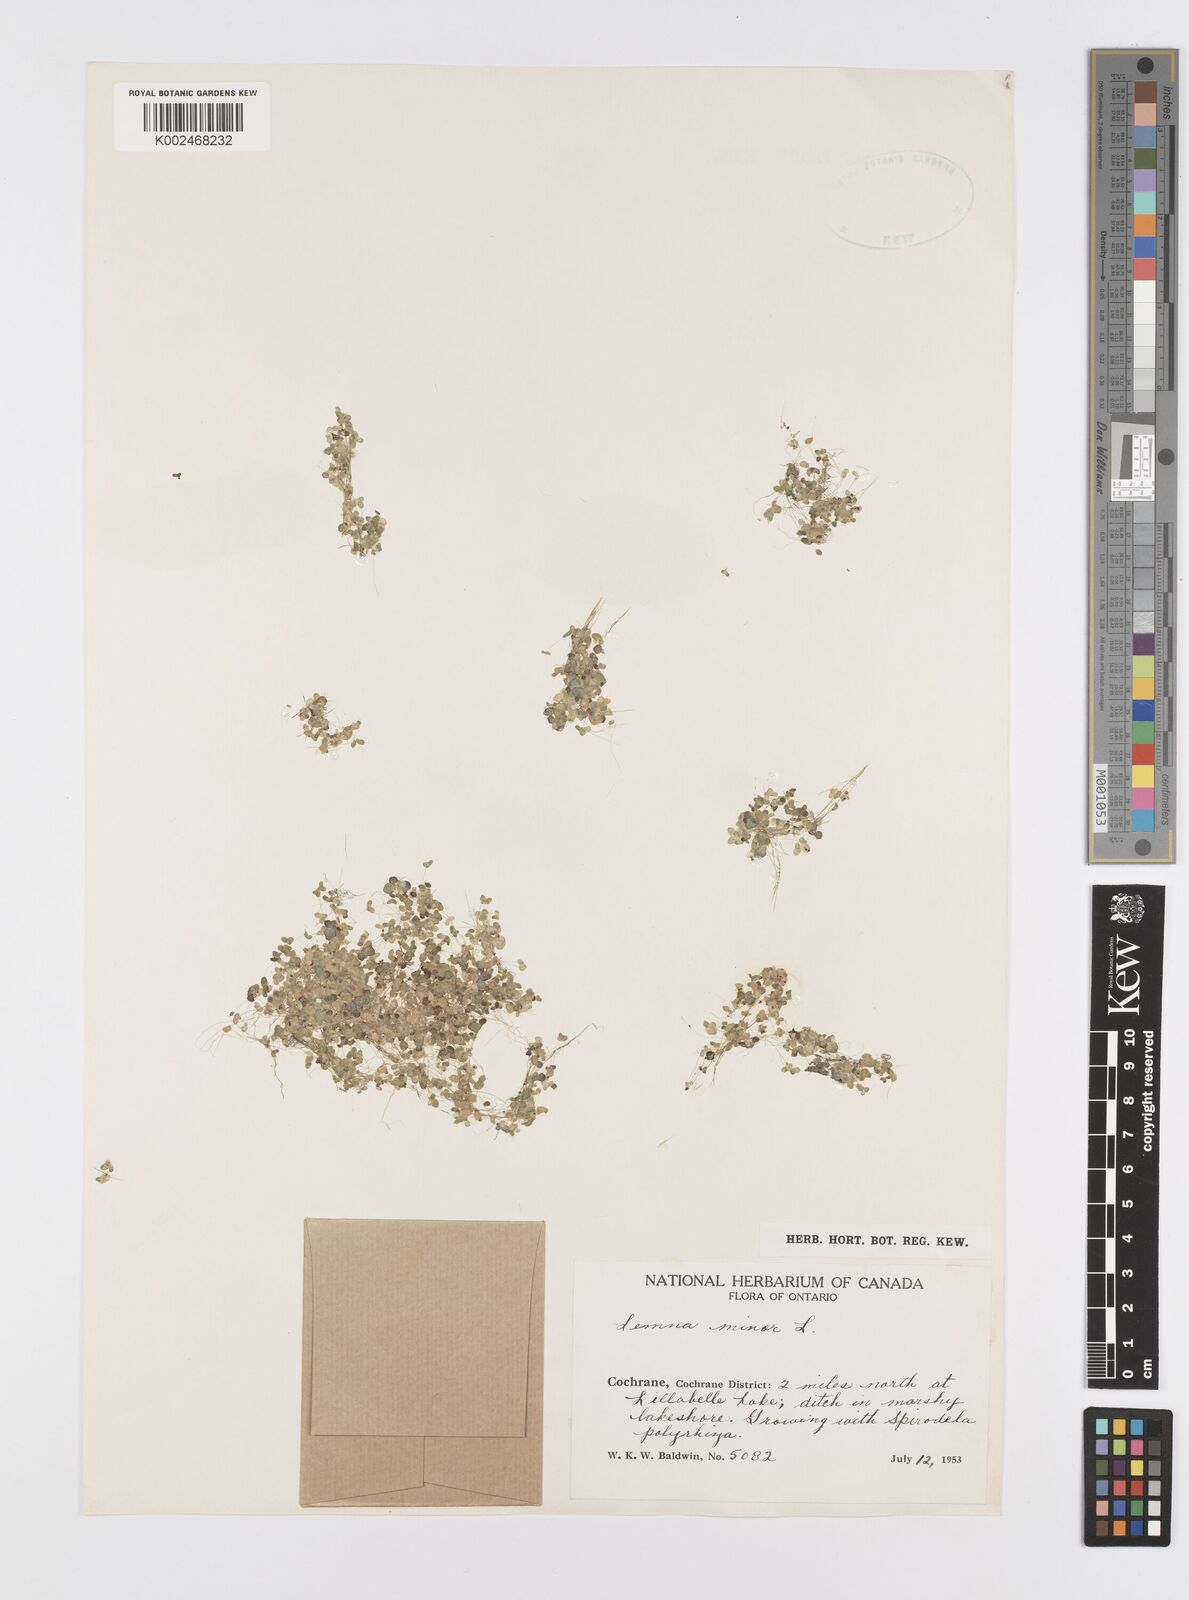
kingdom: Plantae
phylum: Tracheophyta
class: Liliopsida
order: Alismatales
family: Araceae
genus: Lemna
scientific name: Lemna minor
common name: Common duckweed
